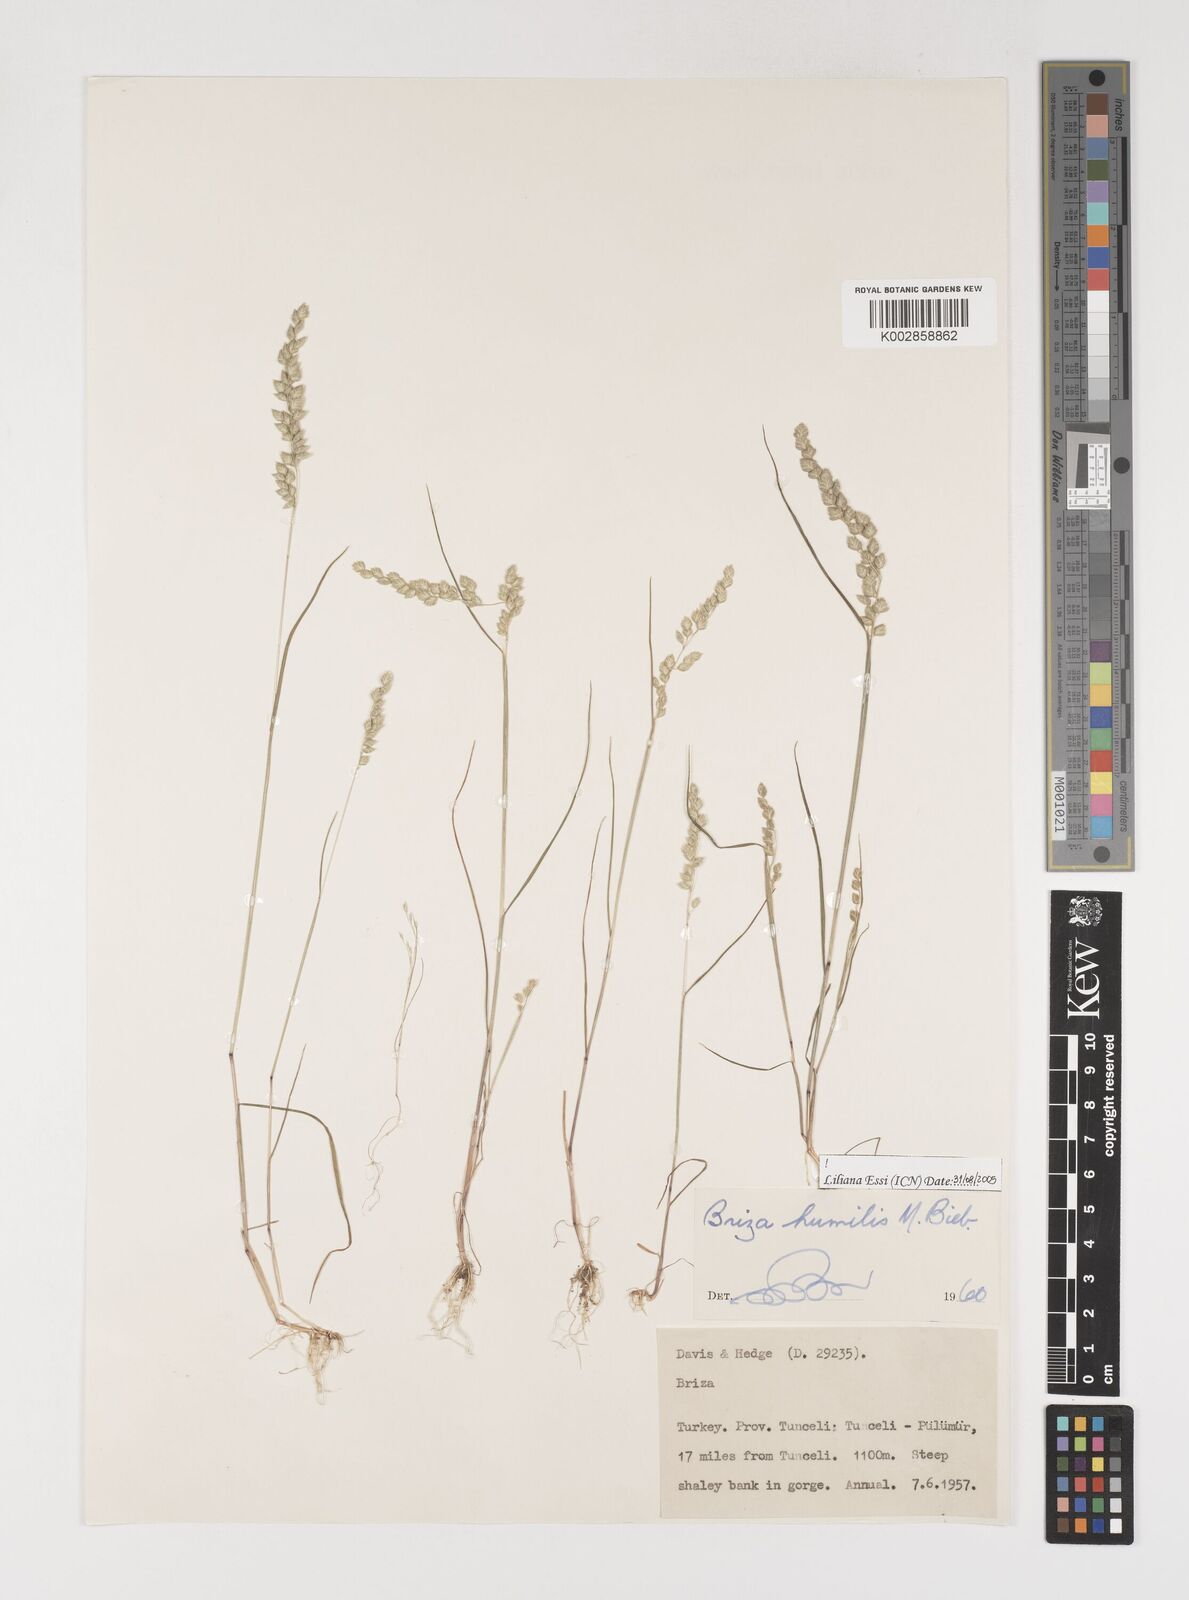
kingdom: Plantae
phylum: Tracheophyta
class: Liliopsida
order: Poales
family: Poaceae
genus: Briza
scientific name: Briza humilis
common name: Spiked quaking grass
